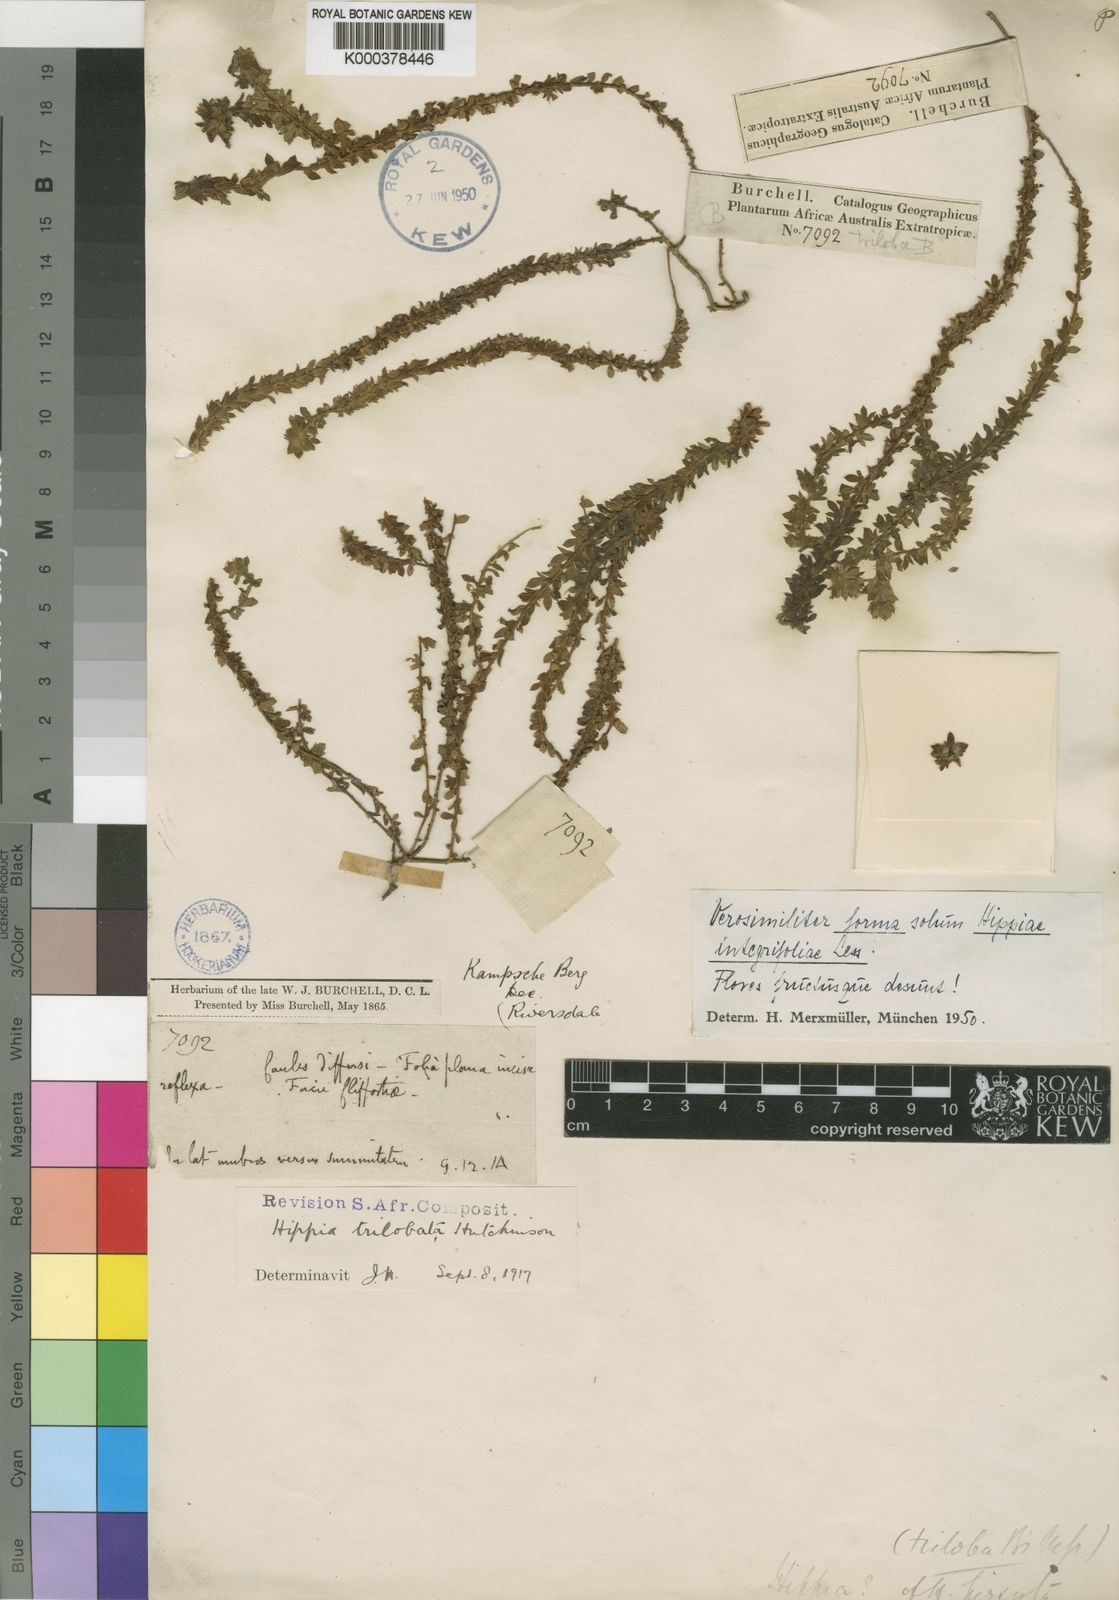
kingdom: Plantae
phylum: Tracheophyta
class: Magnoliopsida
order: Asterales
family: Asteraceae
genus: Hippia
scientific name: Hippia trilobata
